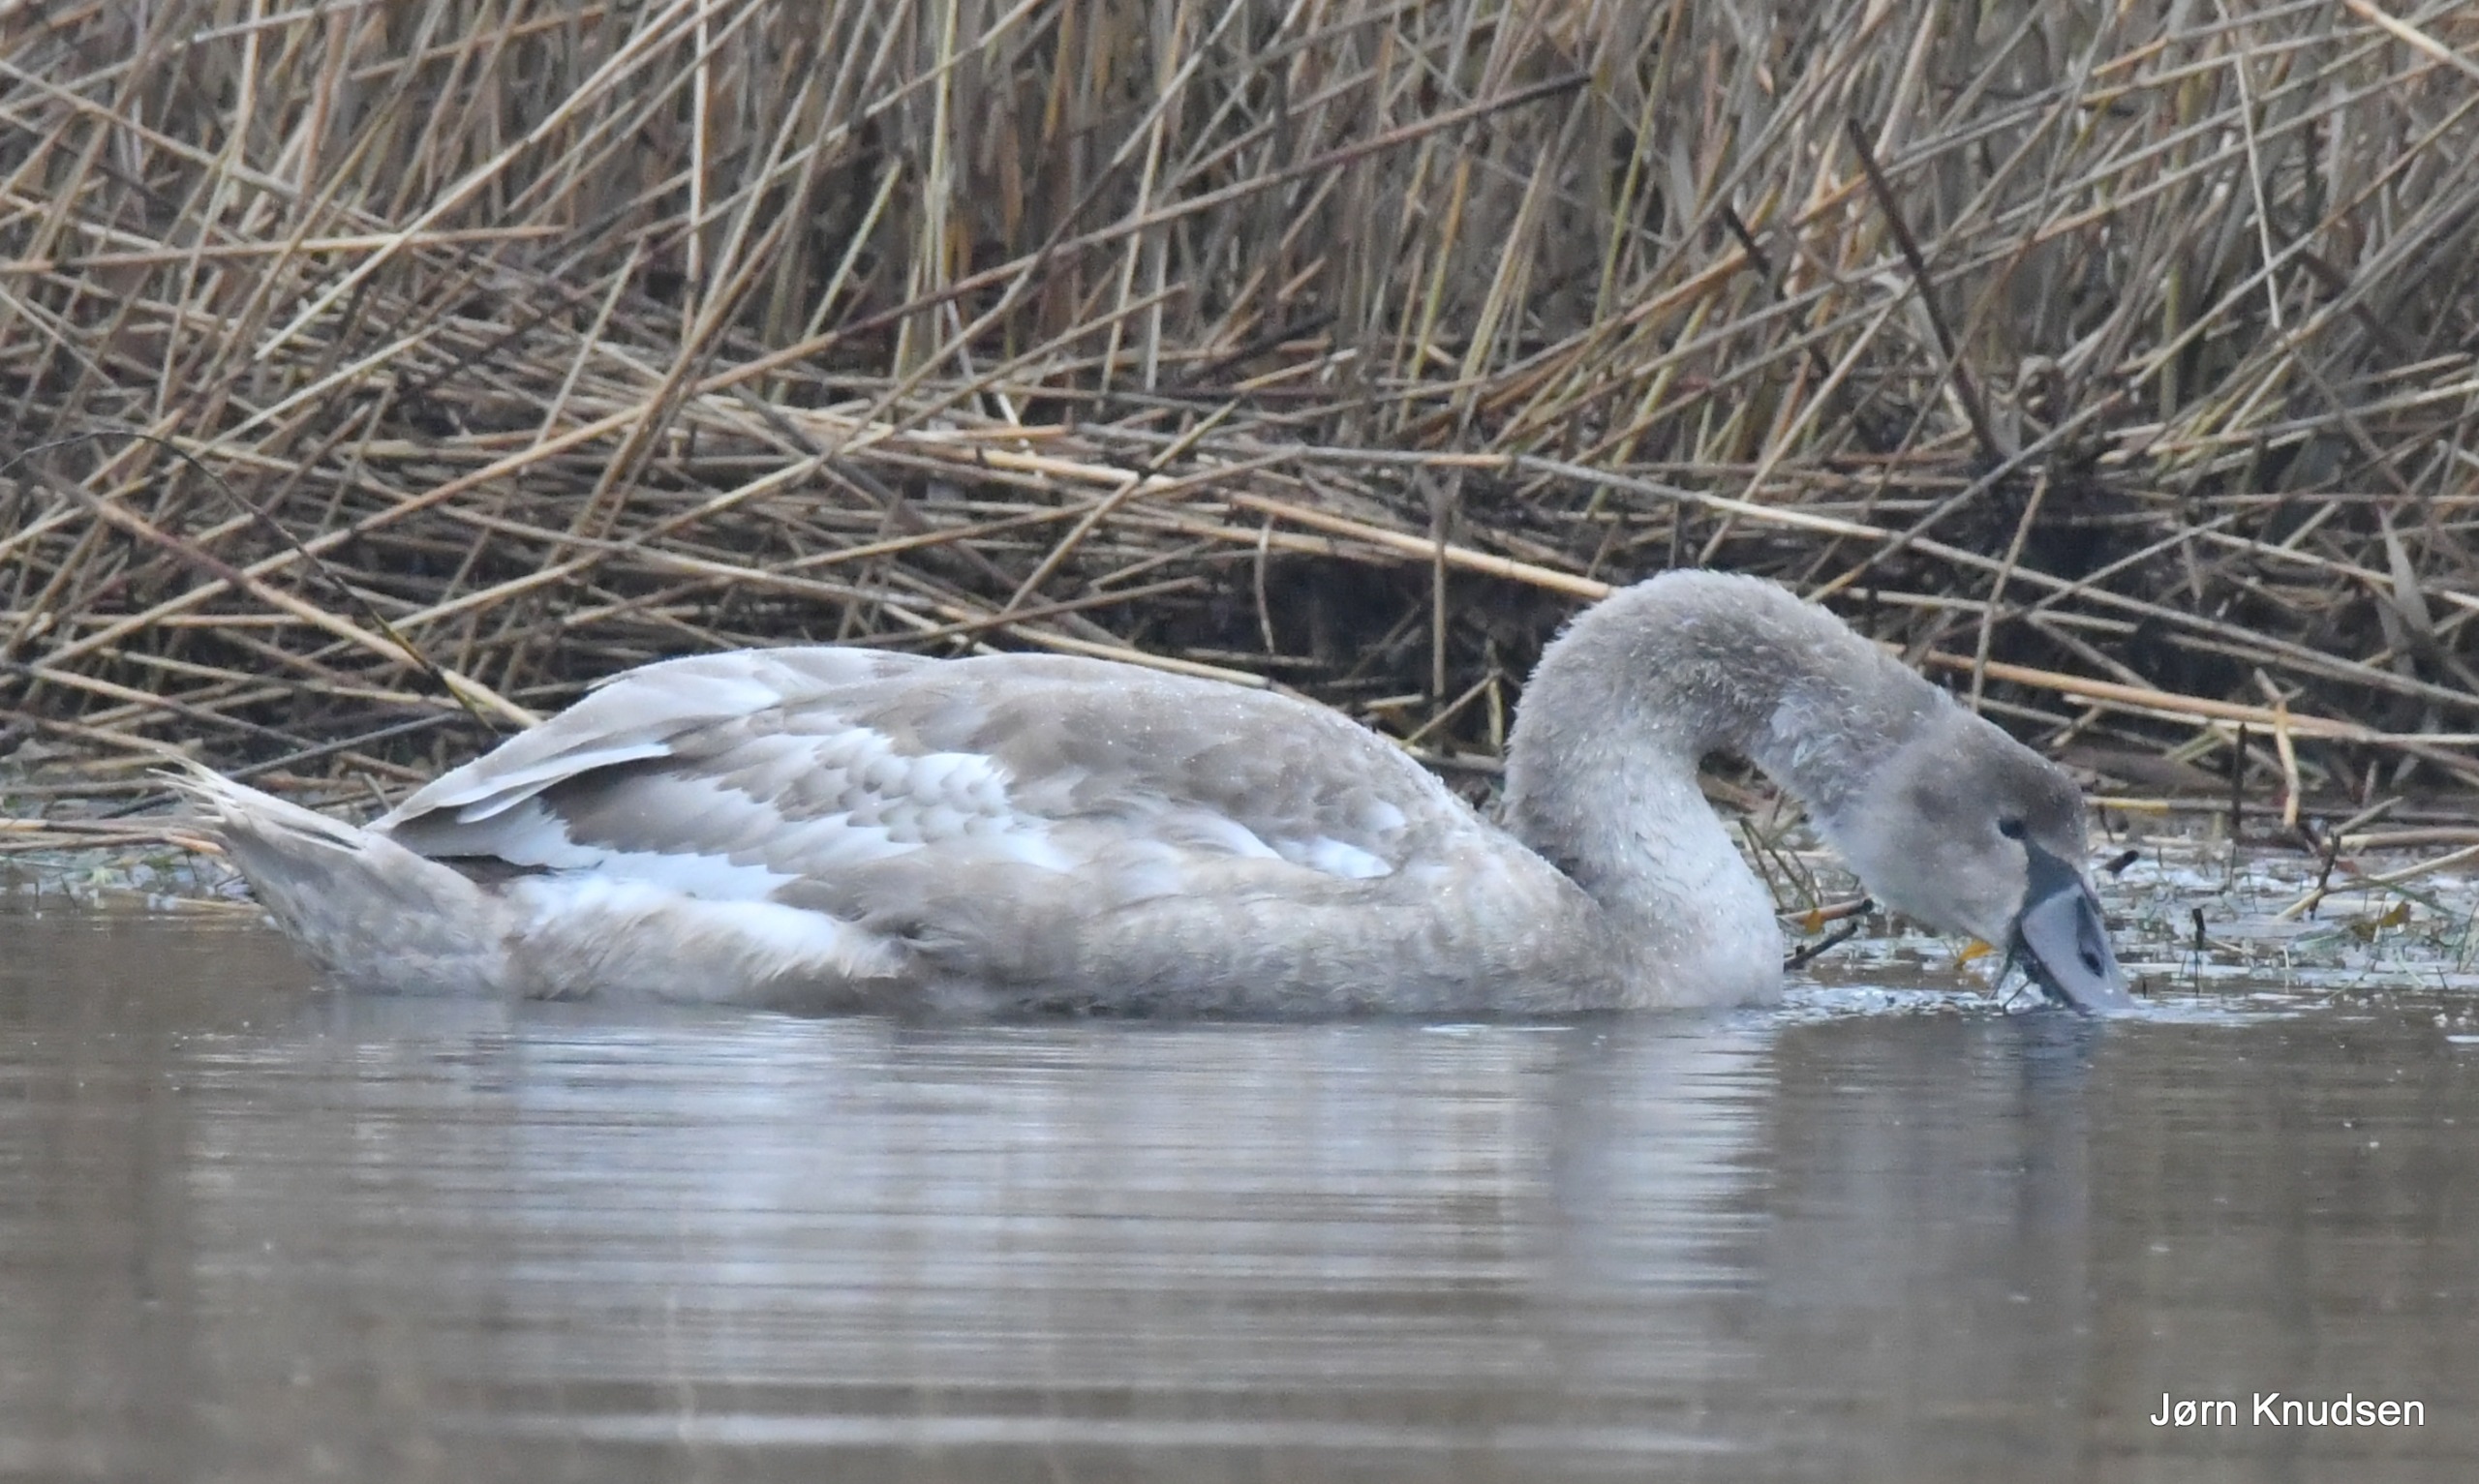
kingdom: Animalia
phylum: Chordata
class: Aves
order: Anseriformes
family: Anatidae
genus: Cygnus
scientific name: Cygnus olor
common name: Knopsvane
